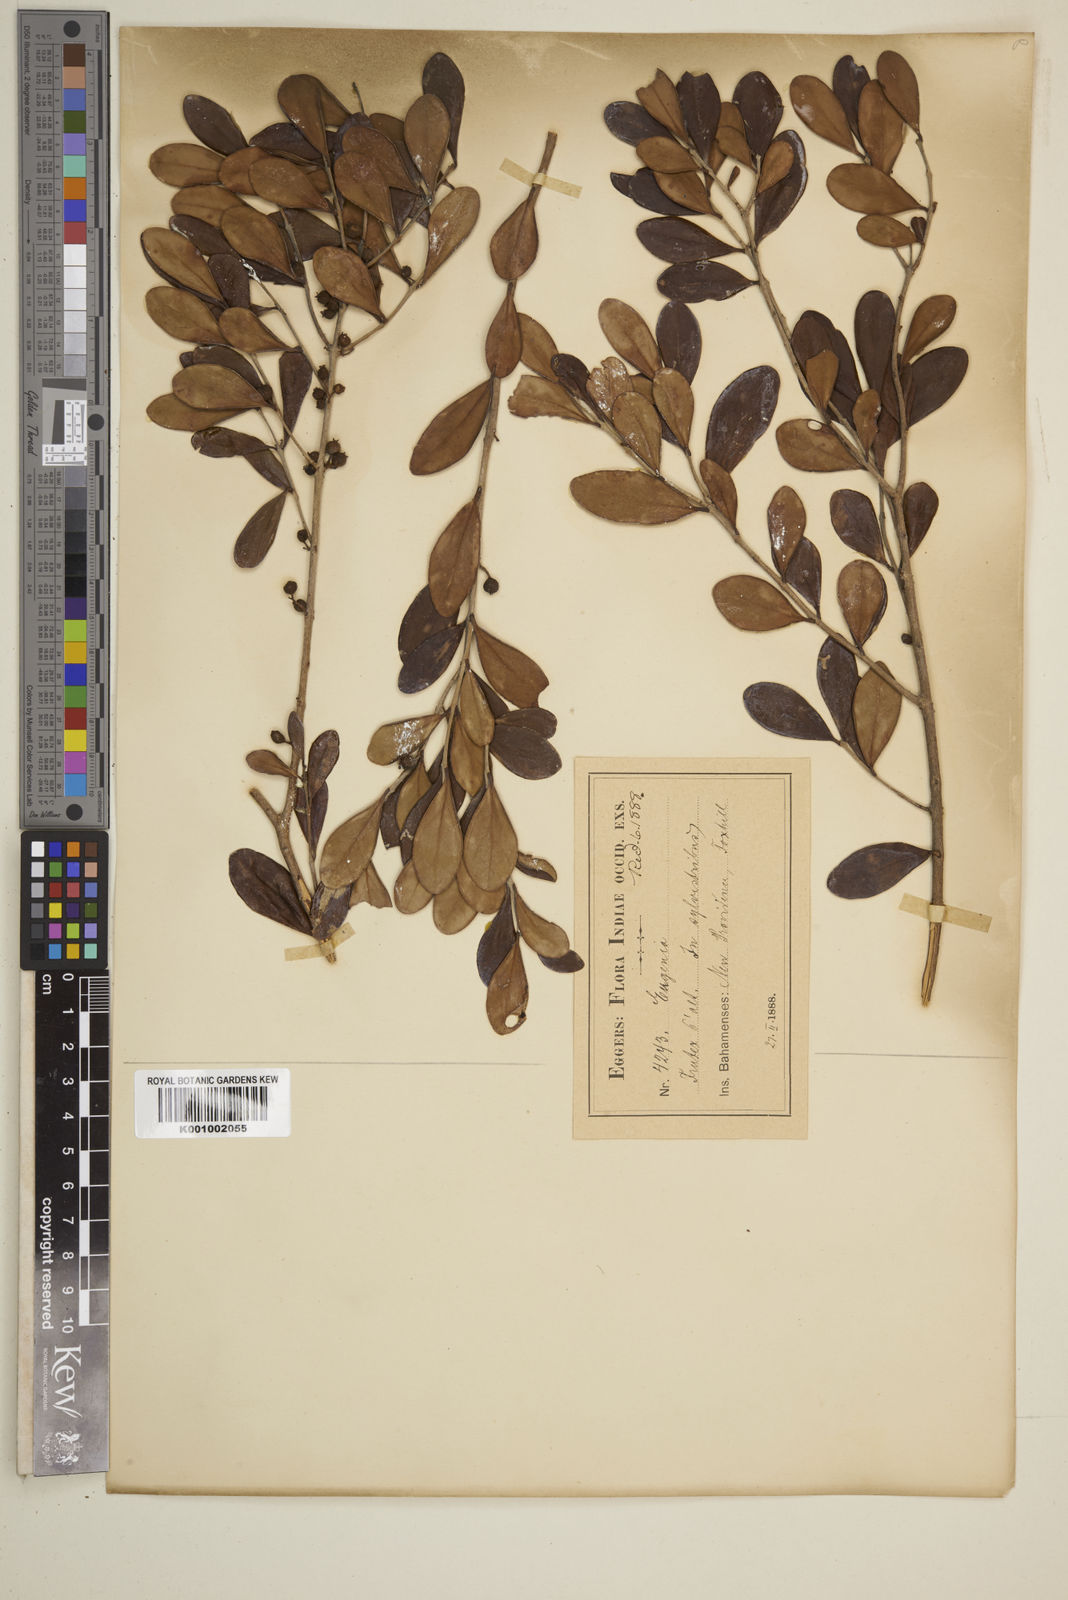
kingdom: Plantae
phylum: Tracheophyta
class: Magnoliopsida
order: Myrtales
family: Myrtaceae
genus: Eugenia
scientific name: Eugenia buxifolia
